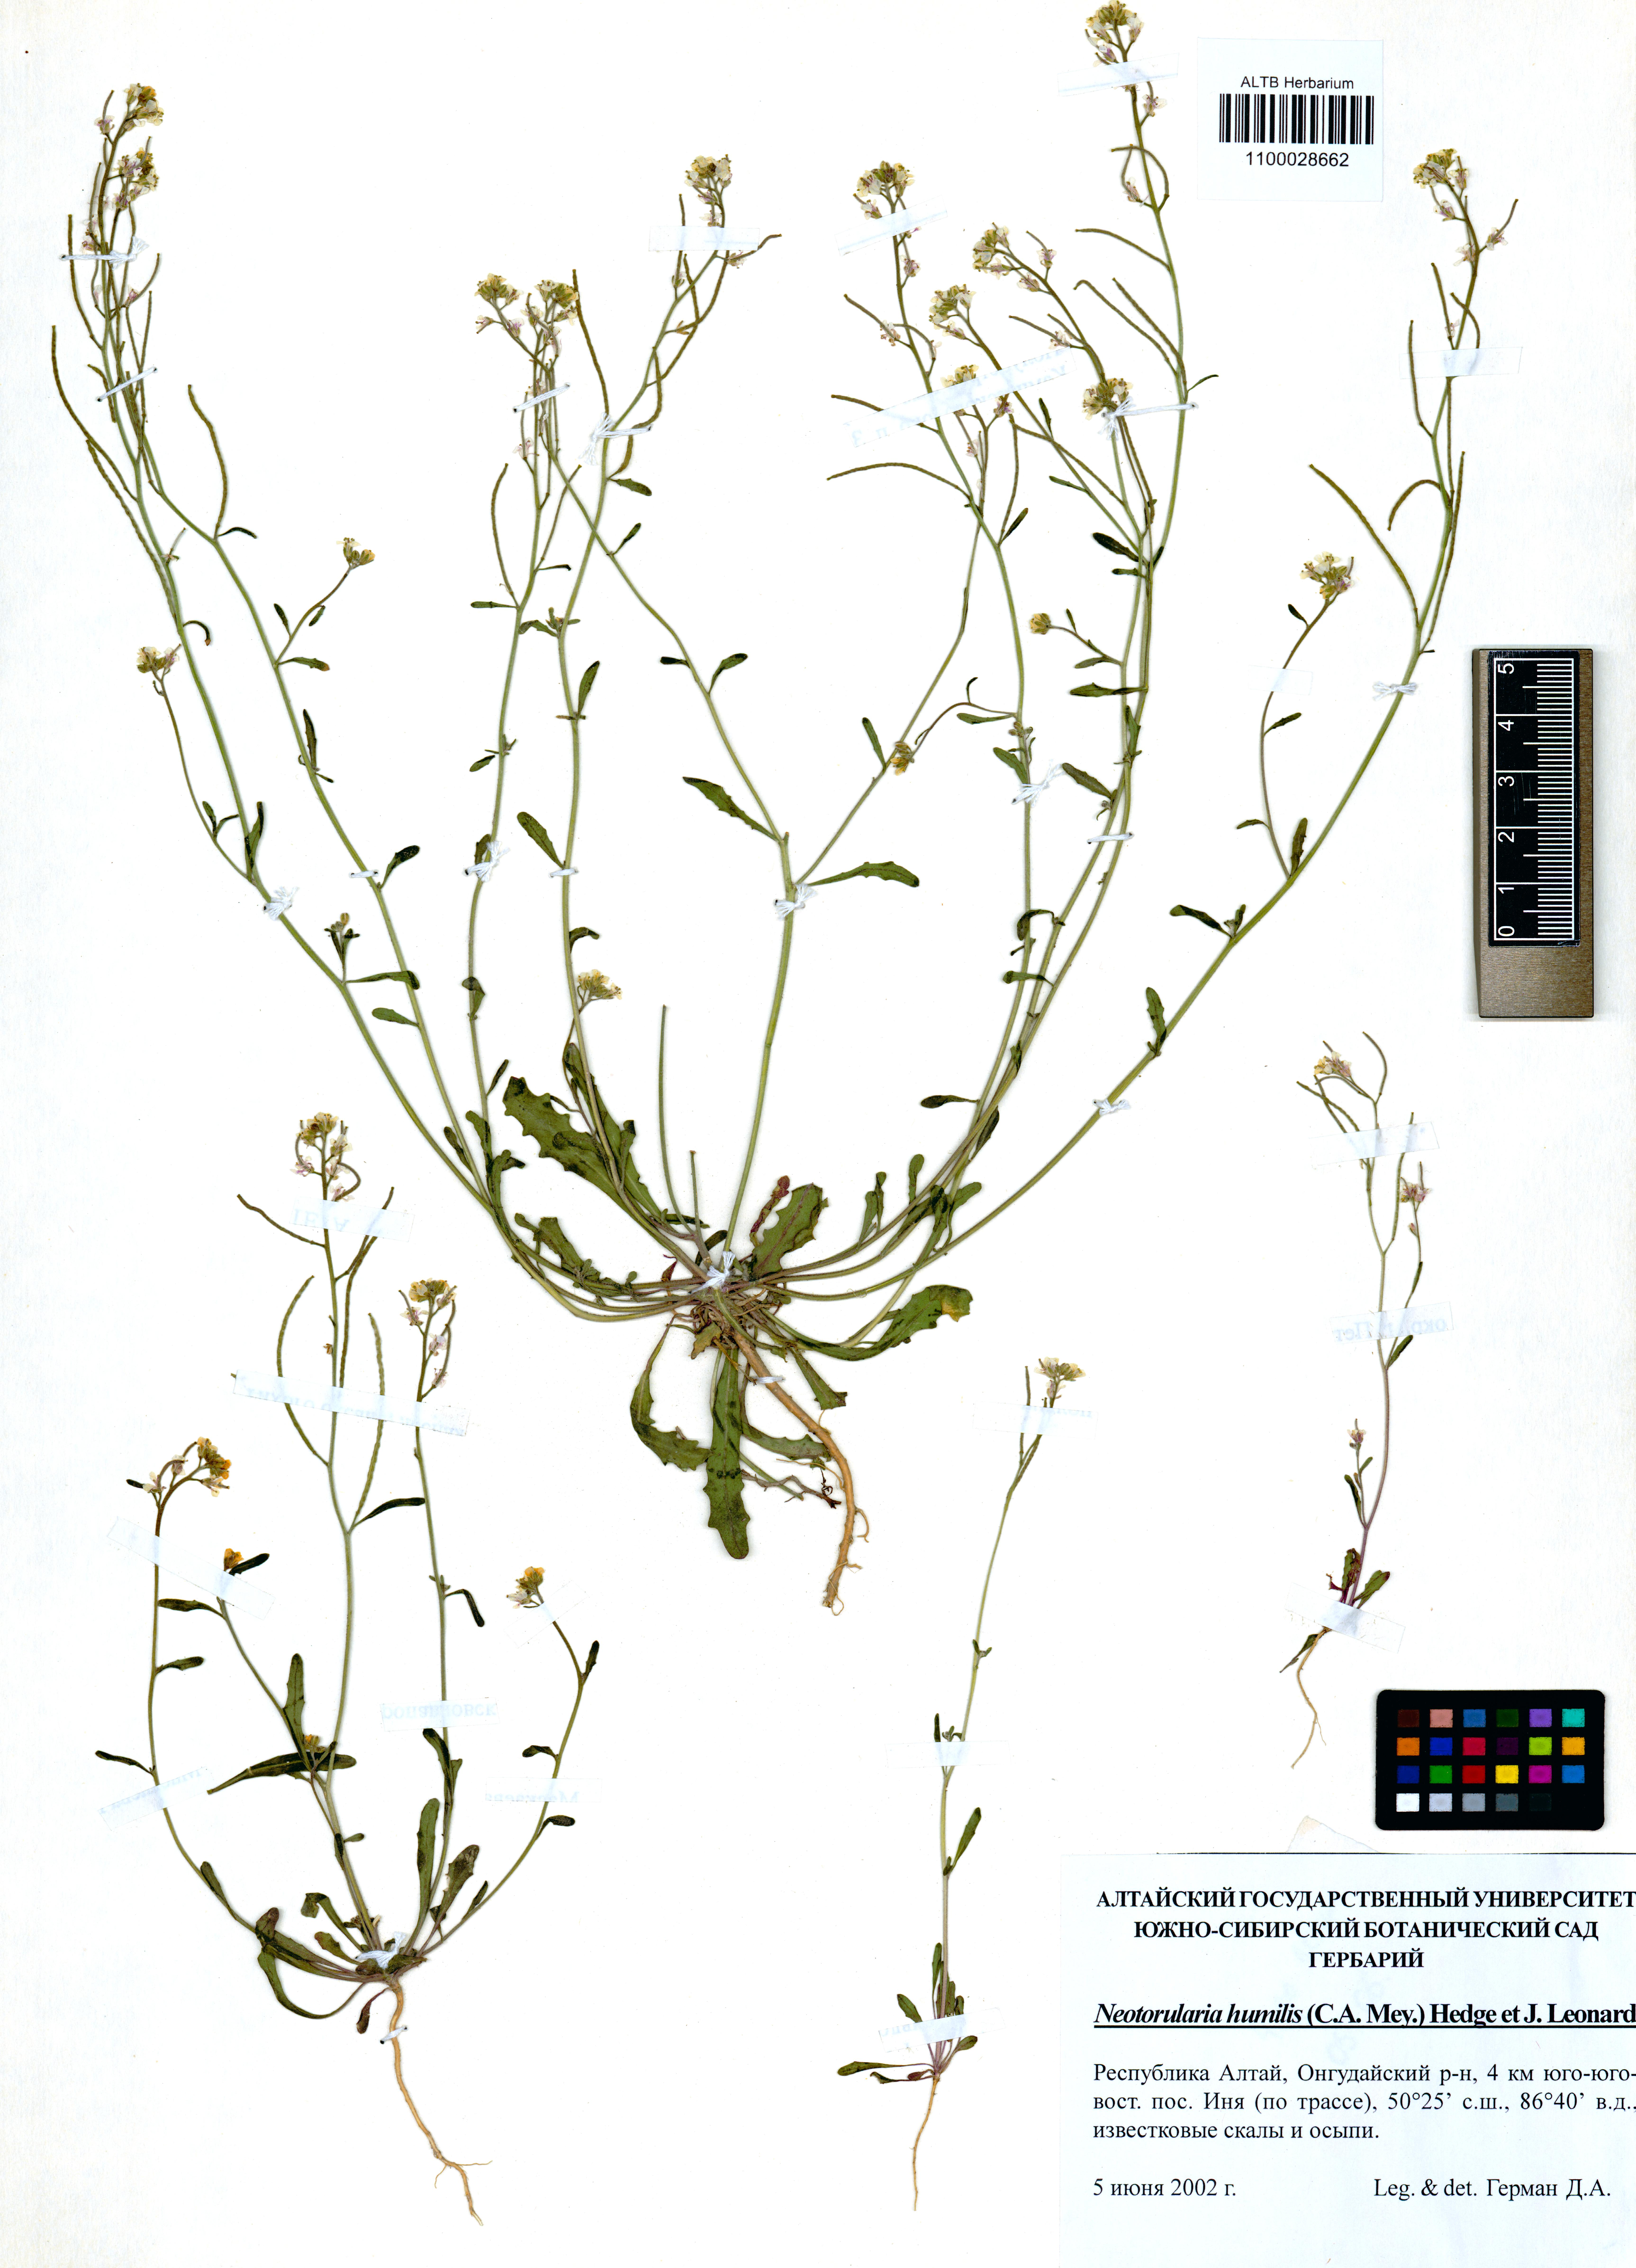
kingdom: Plantae
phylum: Tracheophyta
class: Magnoliopsida
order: Brassicales
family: Brassicaceae
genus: Braya
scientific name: Braya humilis
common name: Alpine northern rockcress
